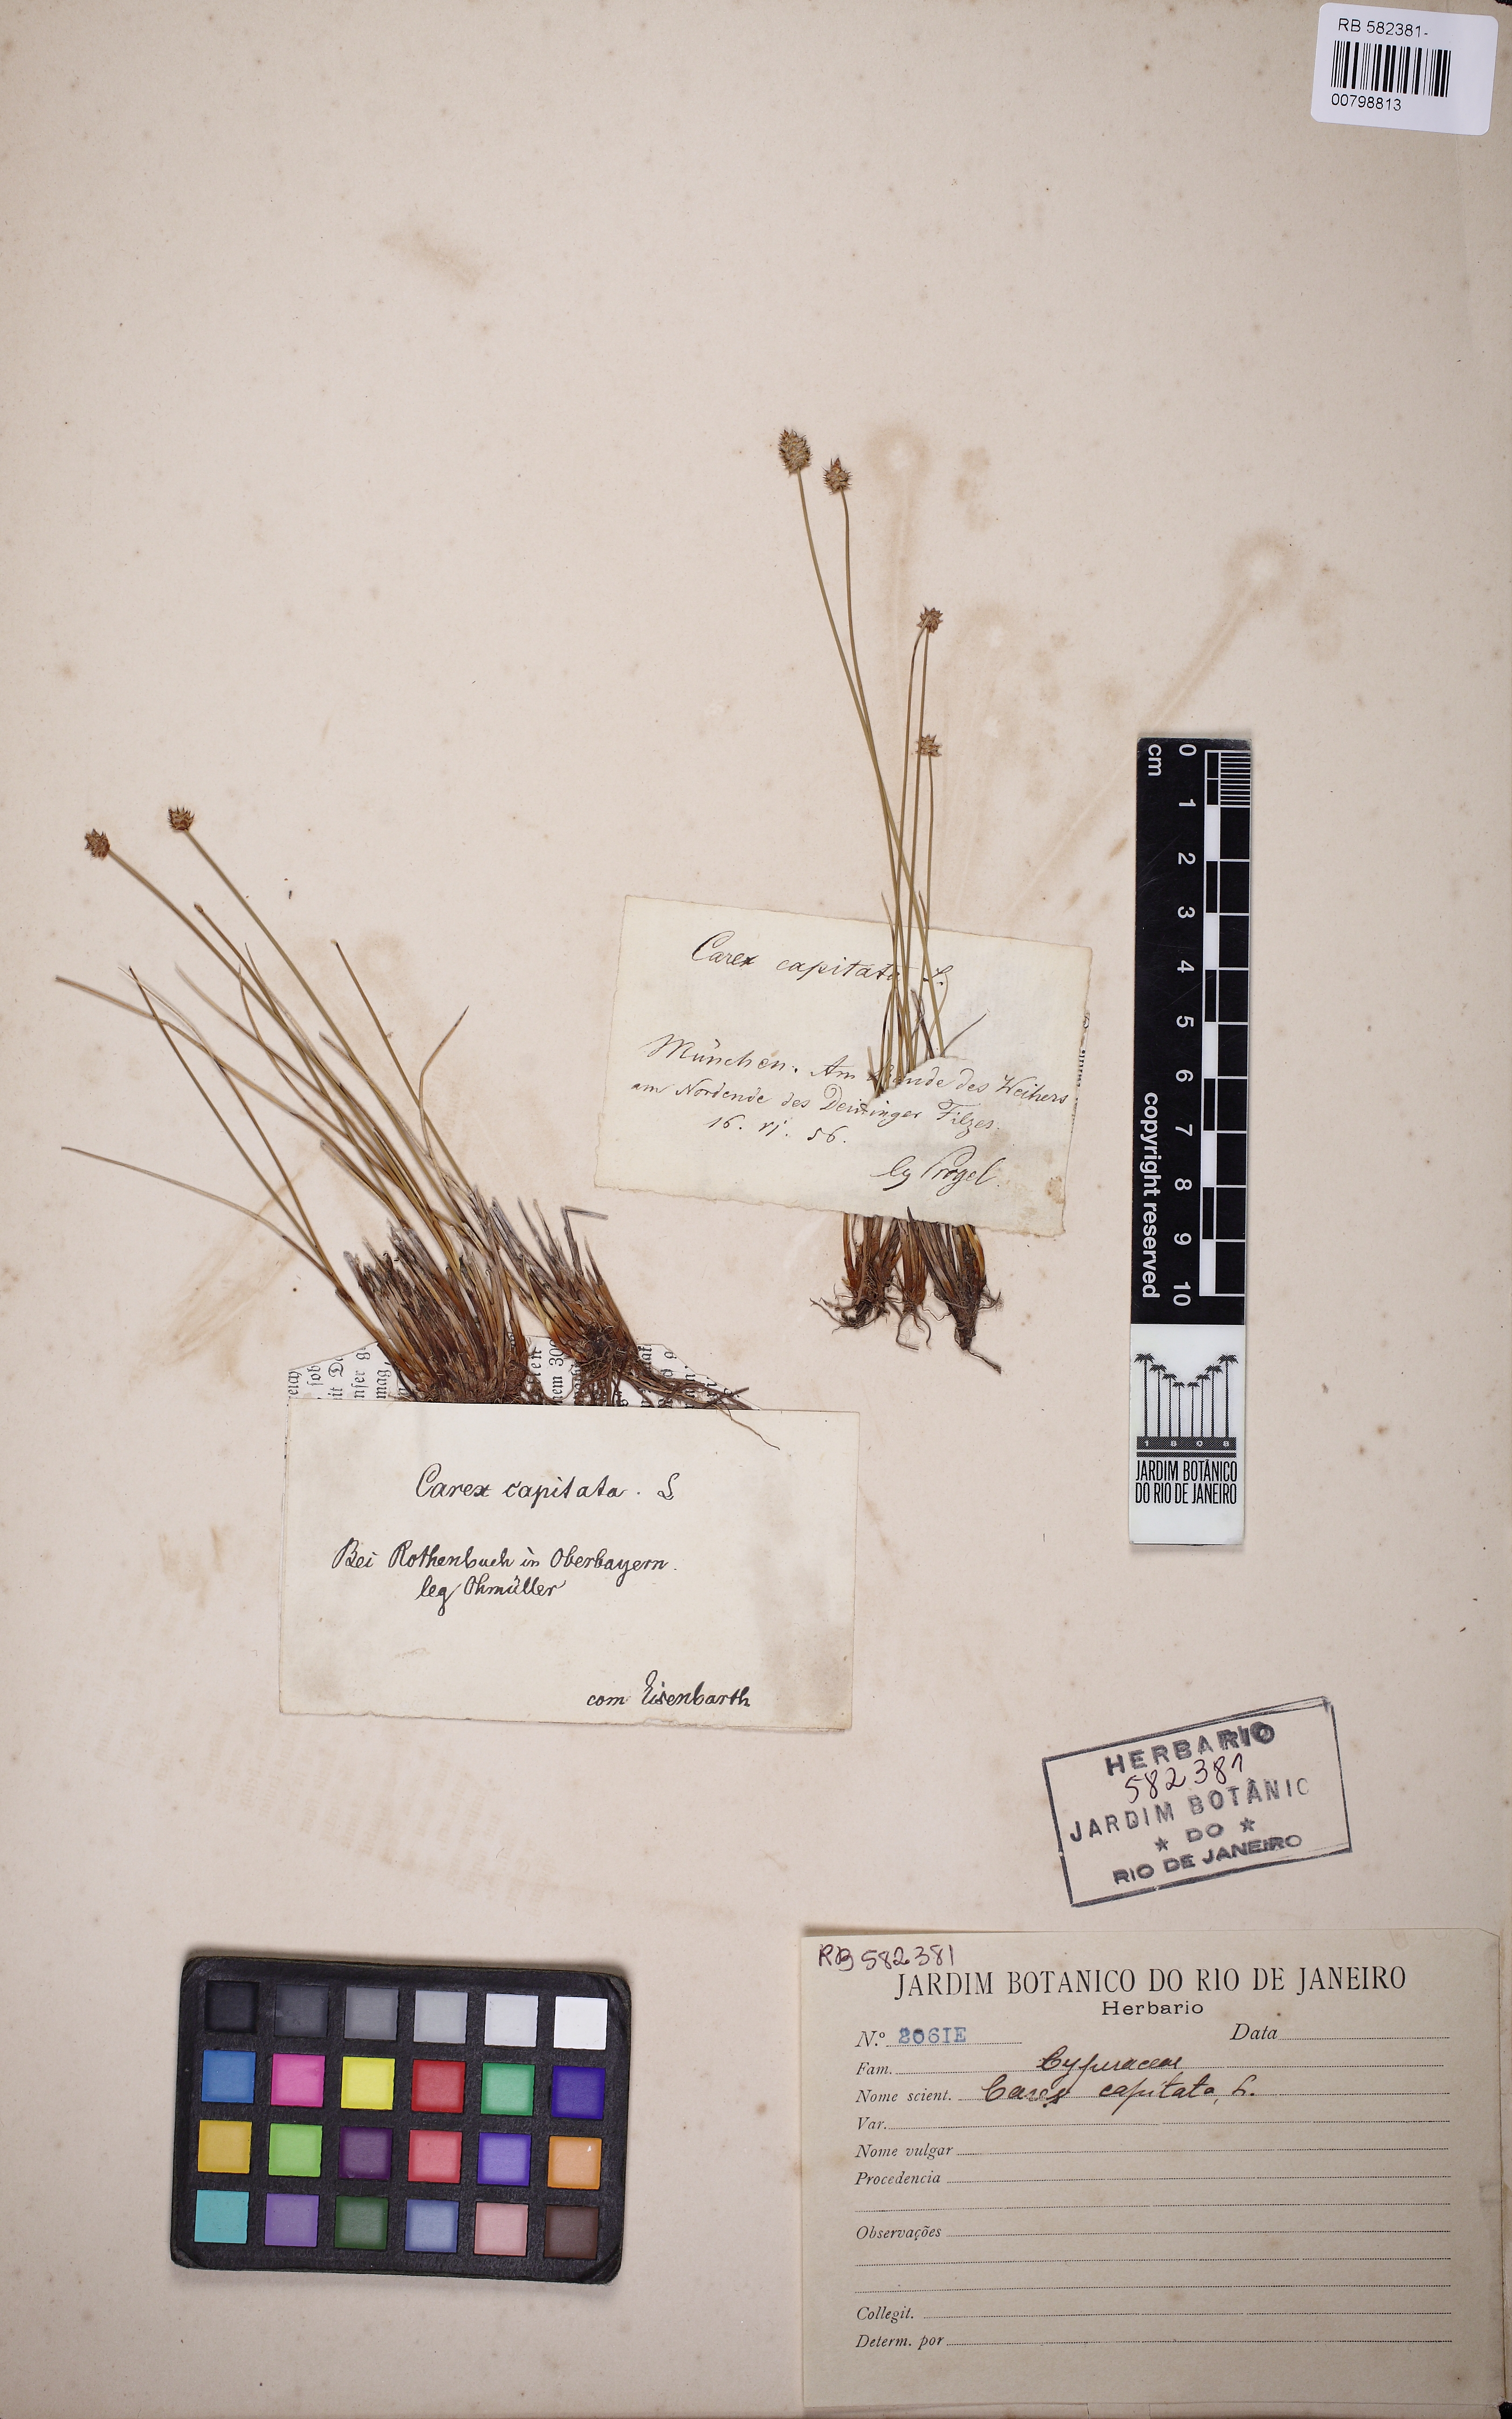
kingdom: Plantae
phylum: Tracheophyta
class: Liliopsida
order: Poales
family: Cyperaceae
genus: Carex
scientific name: Carex capitata
